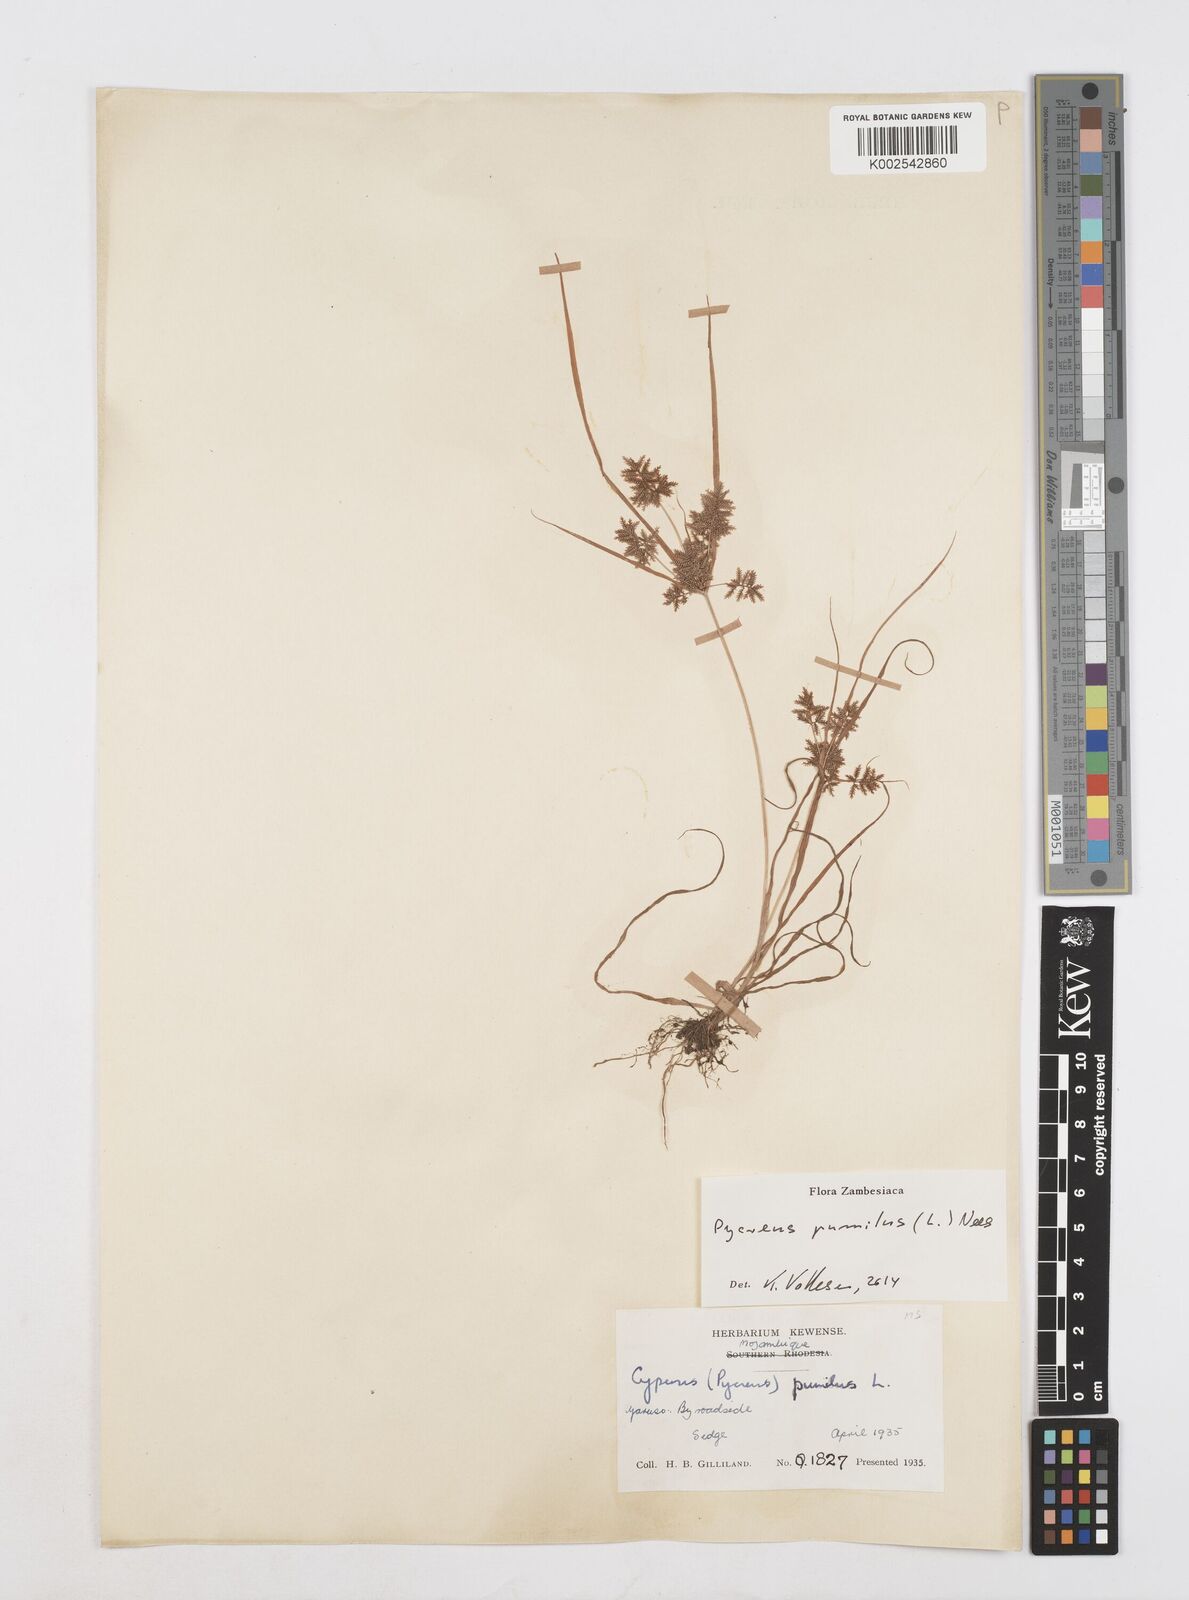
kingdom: Plantae
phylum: Tracheophyta
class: Liliopsida
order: Poales
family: Cyperaceae
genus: Cyperus
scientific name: Cyperus pumilus
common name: Low flatsedge
